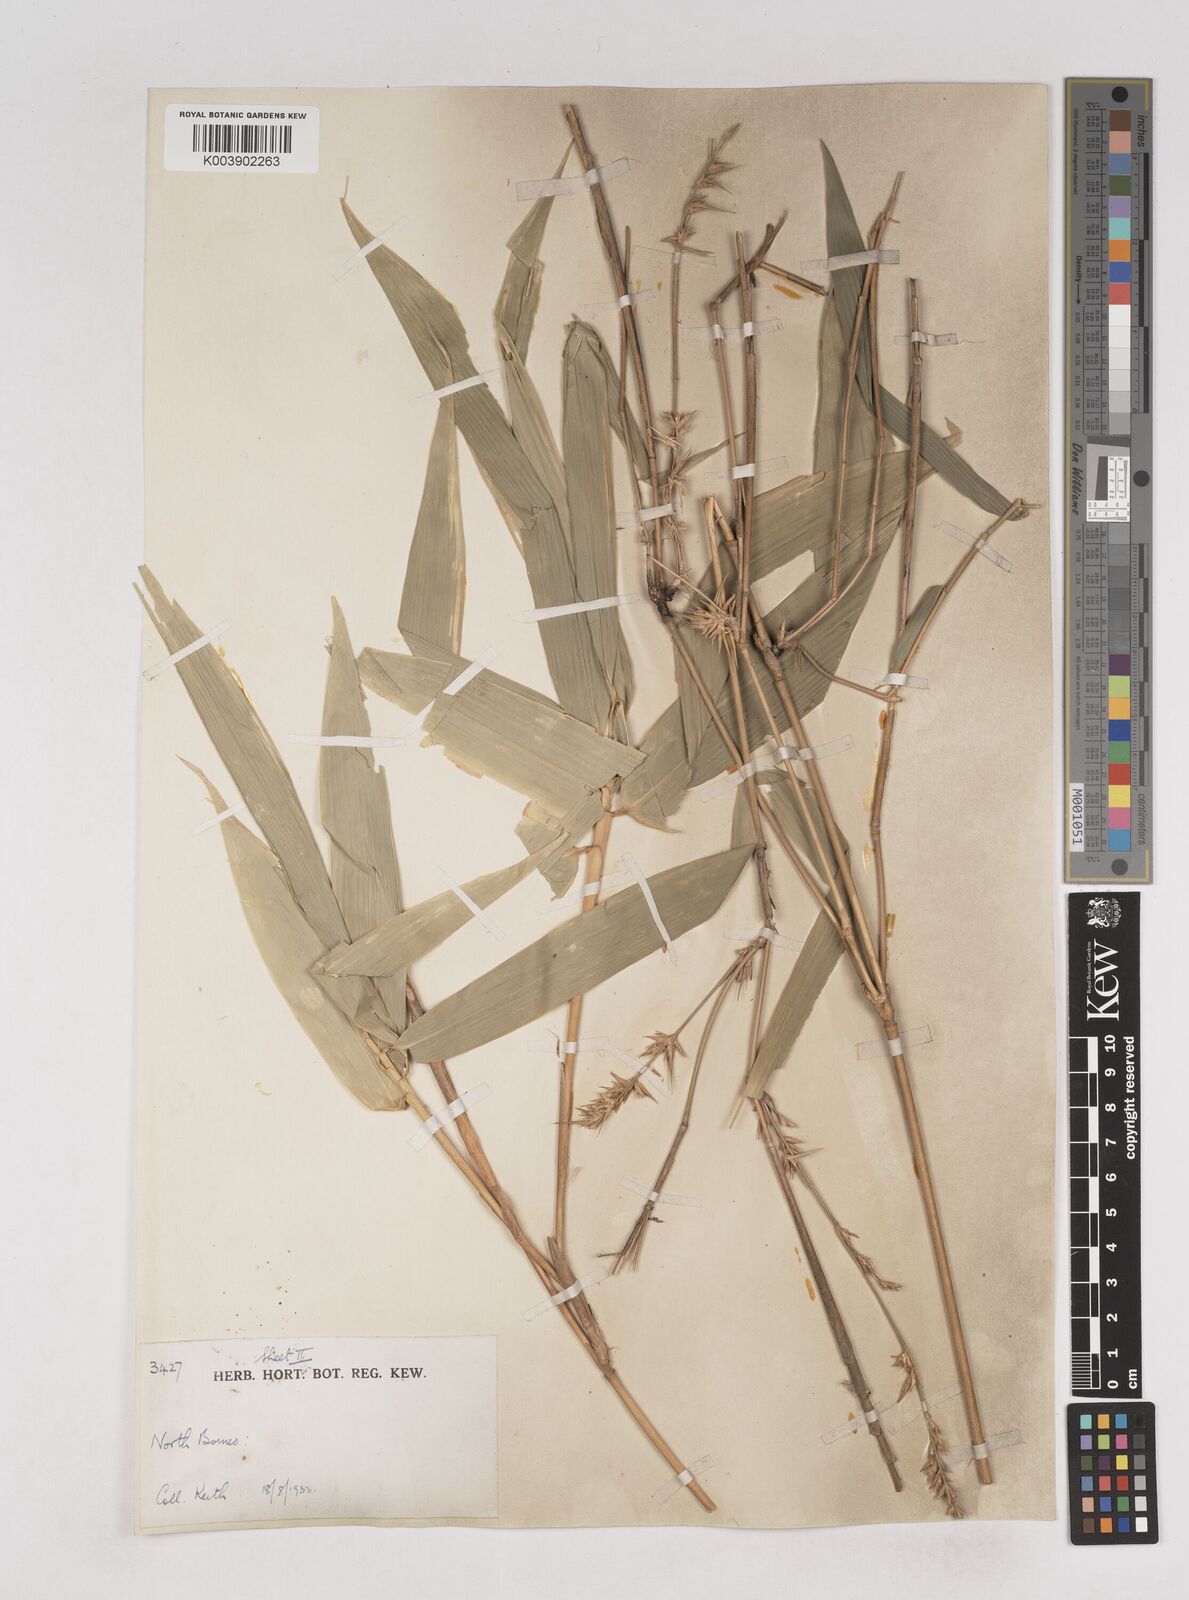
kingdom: Plantae
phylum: Tracheophyta
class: Liliopsida
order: Poales
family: Poaceae
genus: Schizostachyum
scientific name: Schizostachyum lima
